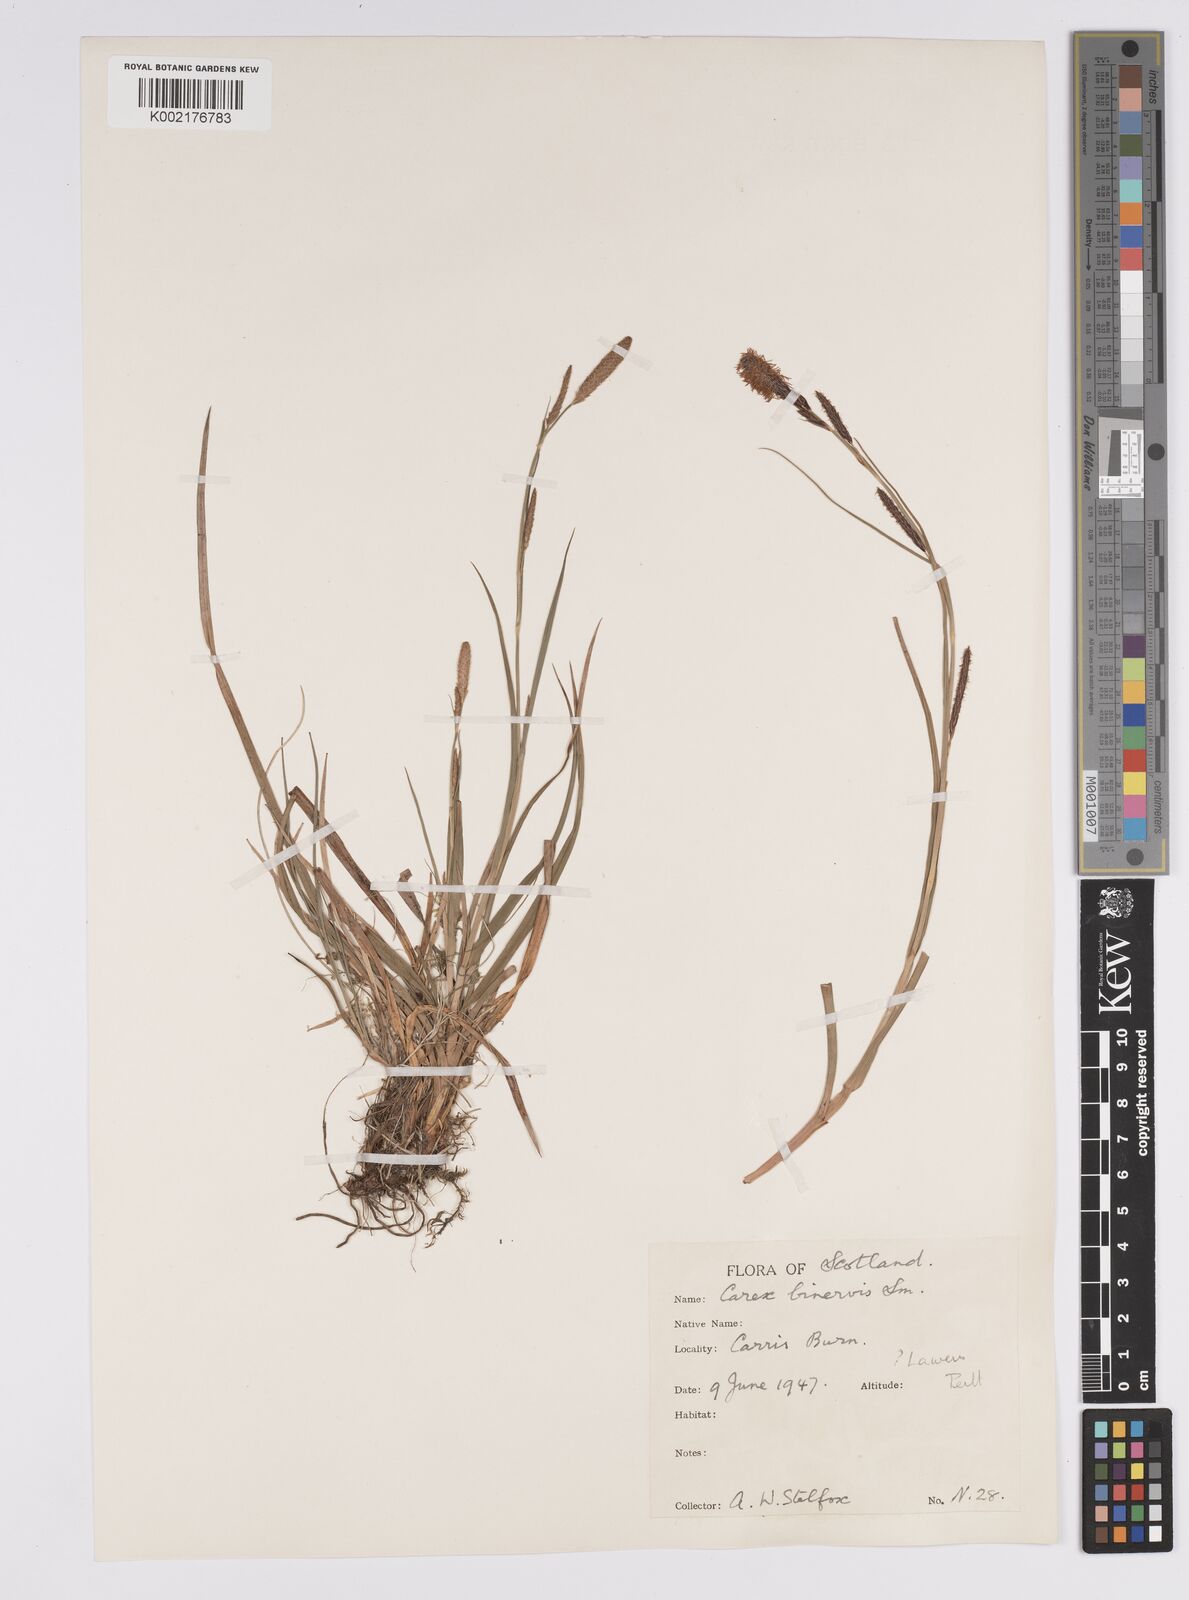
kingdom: Plantae
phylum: Tracheophyta
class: Liliopsida
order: Poales
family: Cyperaceae
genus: Carex
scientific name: Carex binervis
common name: Green-ribbed sedge
